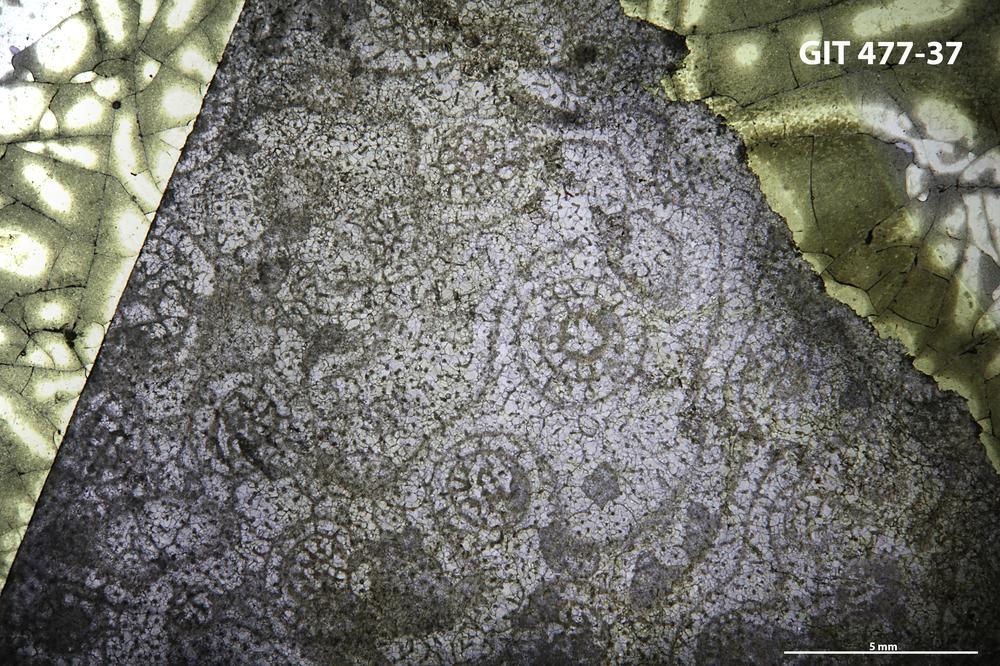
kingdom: Animalia
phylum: Porifera
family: Tienodictyidae
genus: Anostylostroma
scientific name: Anostylostroma
